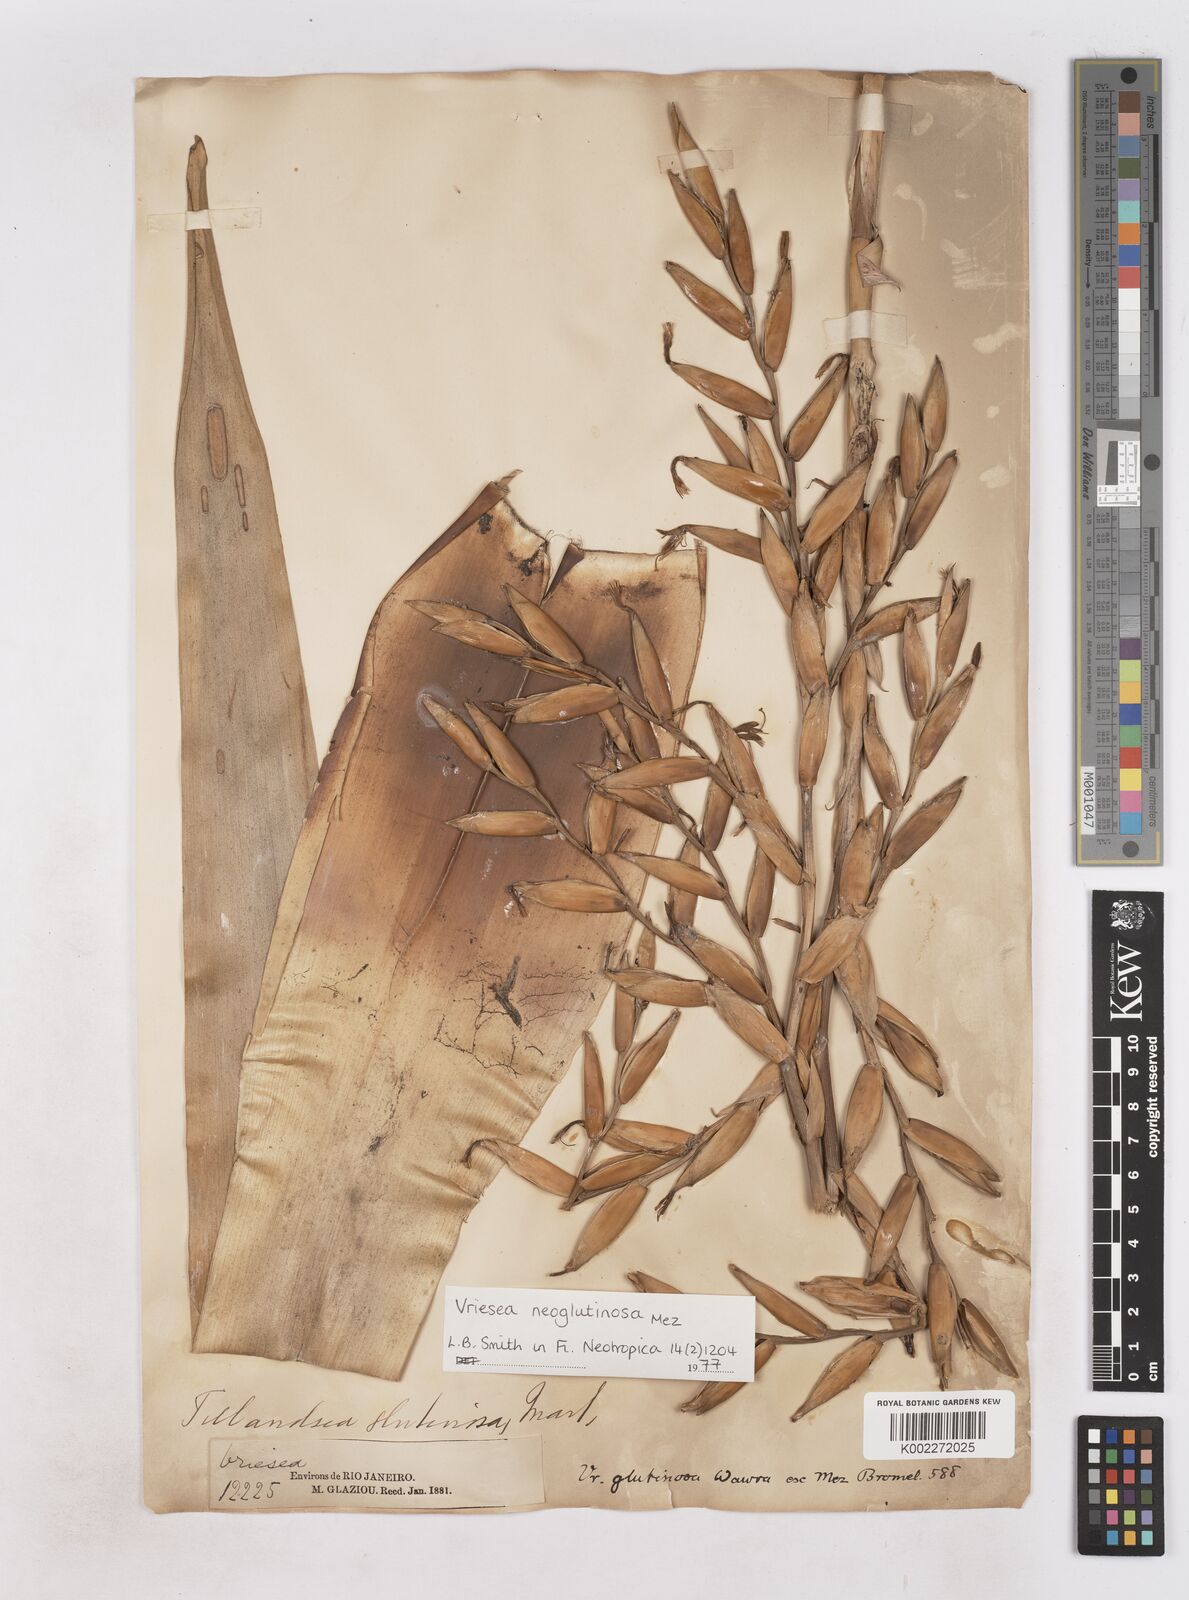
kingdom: Plantae
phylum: Tracheophyta
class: Liliopsida
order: Poales
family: Bromeliaceae
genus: Vriesea
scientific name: Vriesea neoglutinosa
